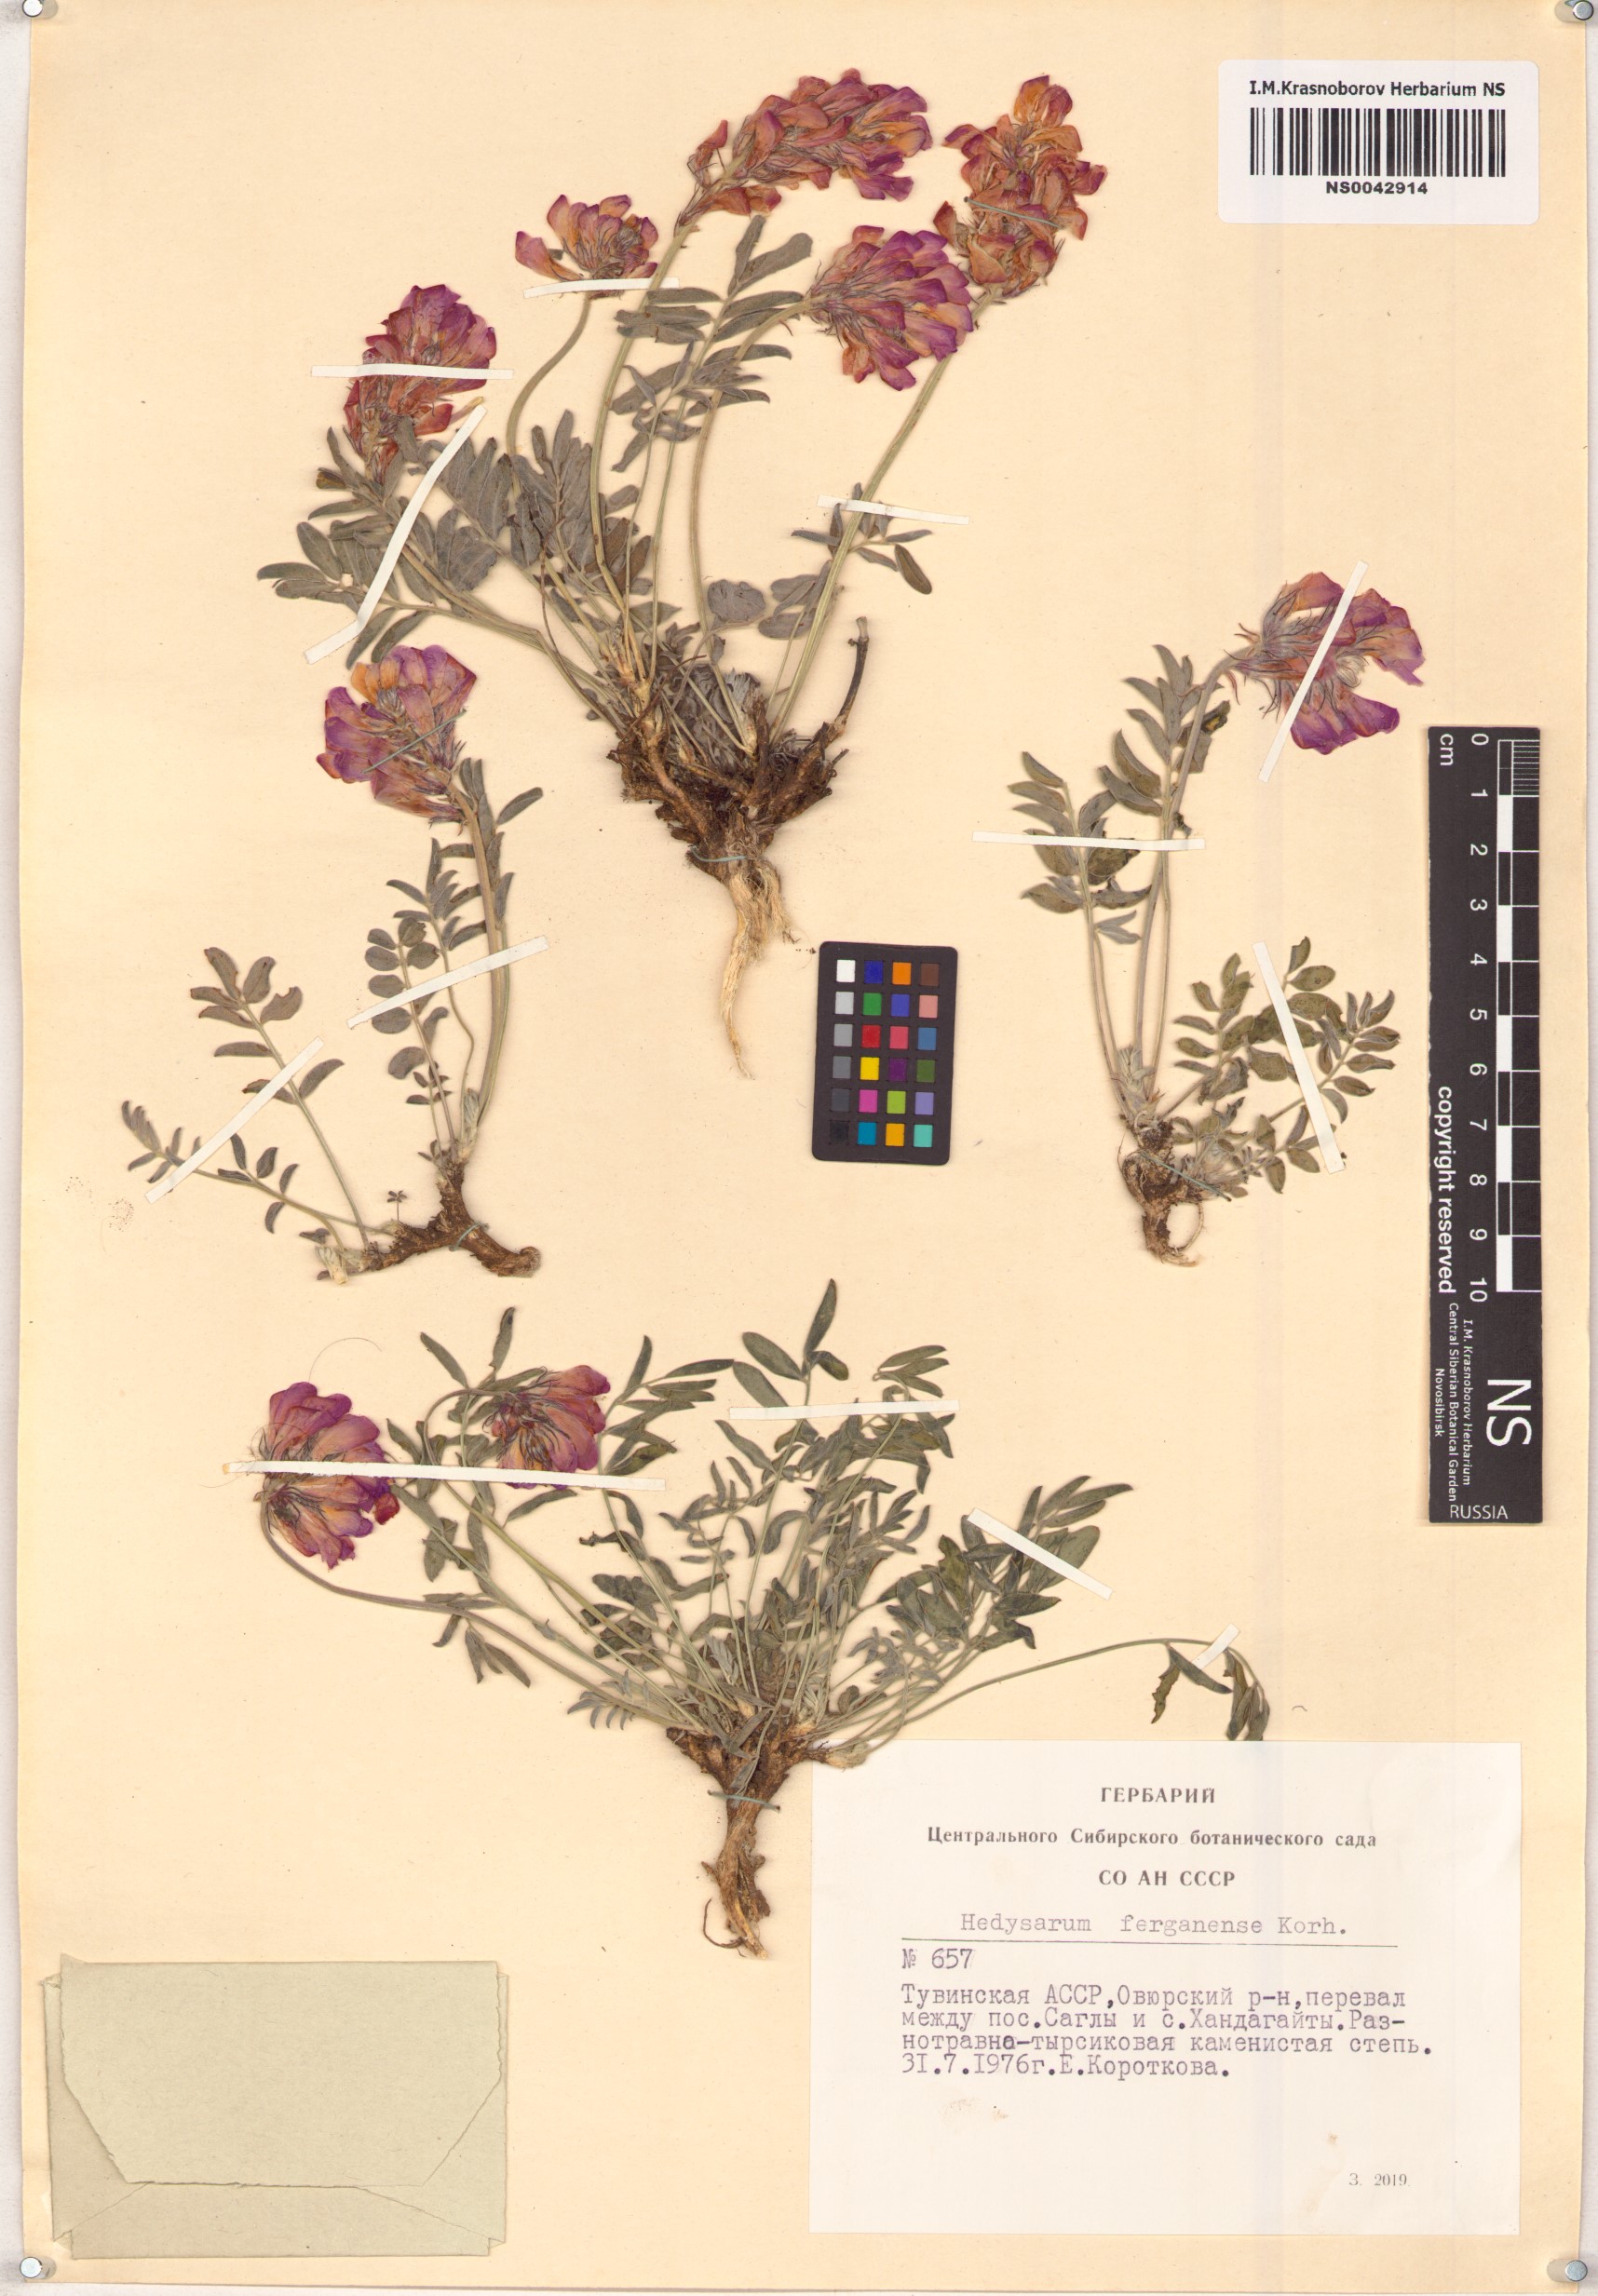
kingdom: Plantae
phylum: Tracheophyta
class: Magnoliopsida
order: Fabales
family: Fabaceae
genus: Hedysarum
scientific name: Hedysarum ferganense
